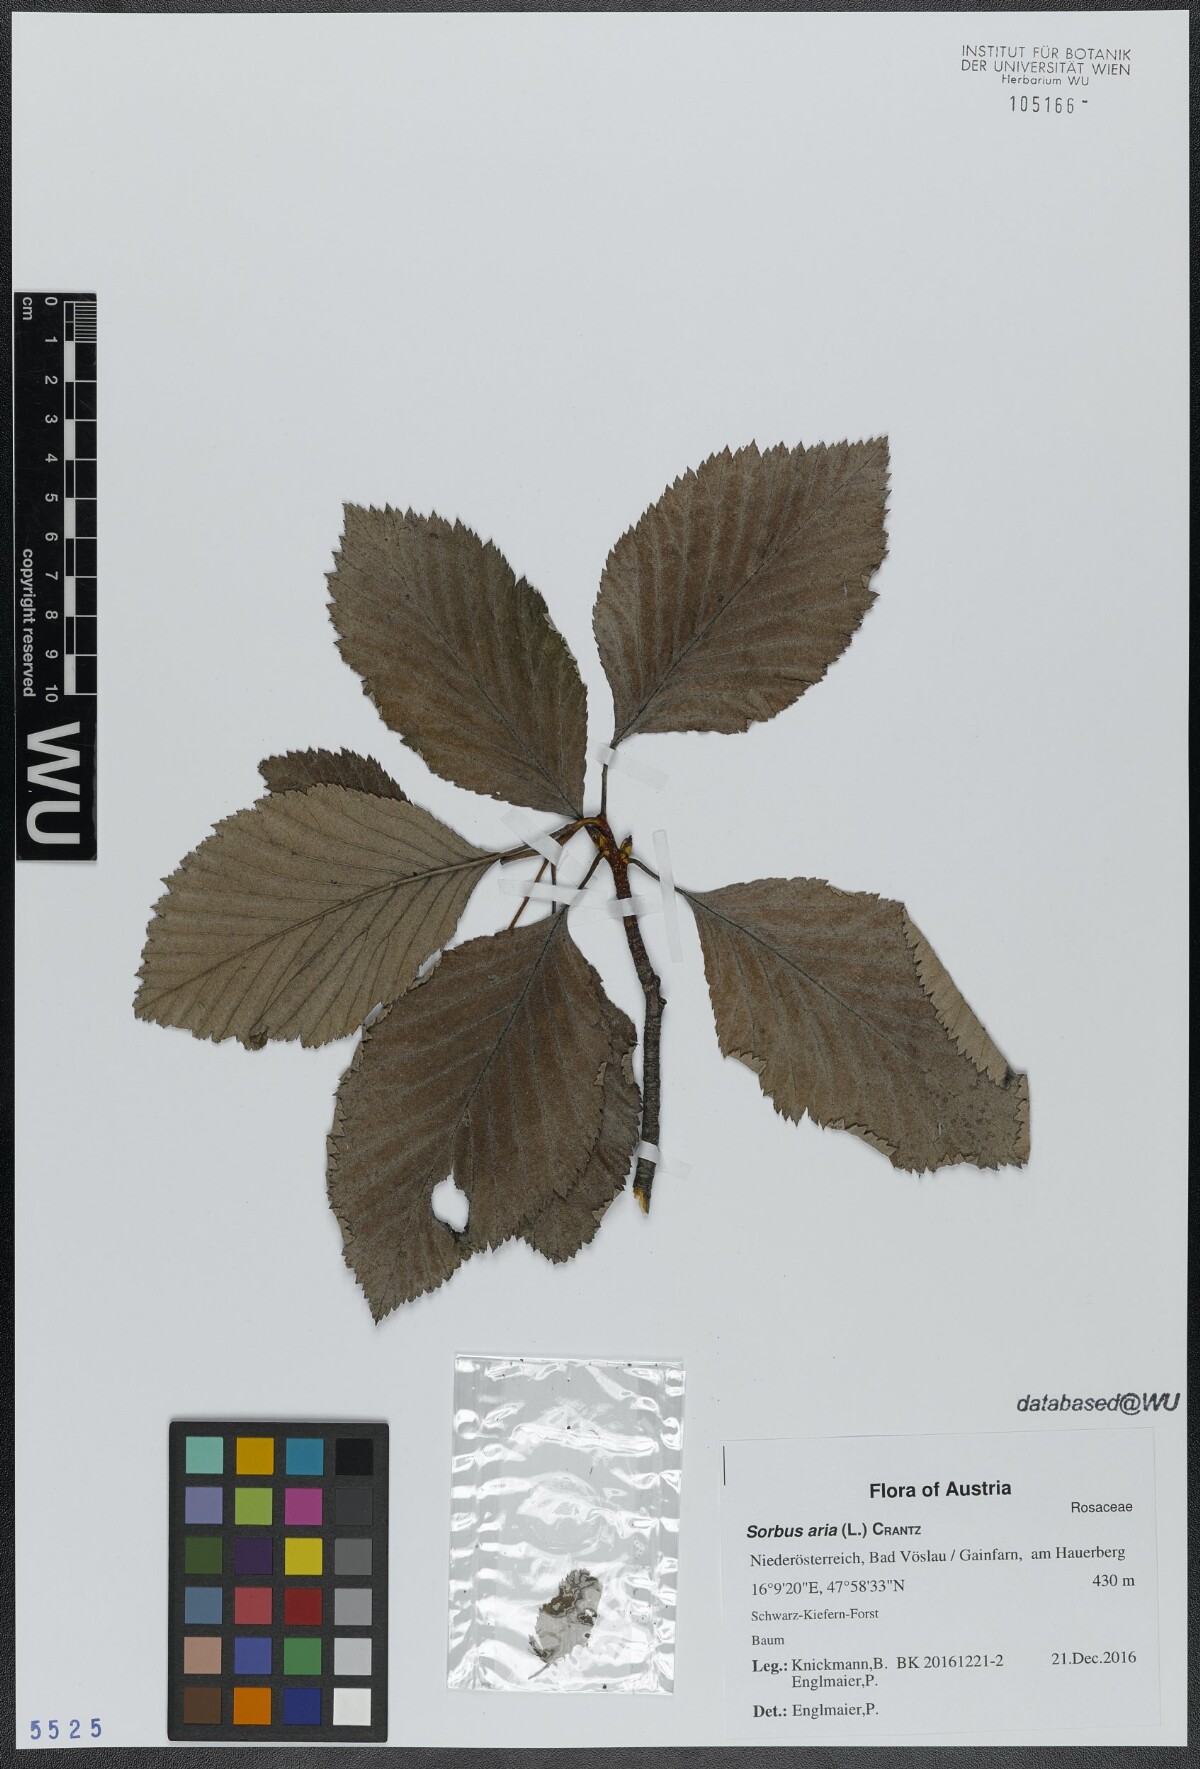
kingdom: Plantae
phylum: Tracheophyta
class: Magnoliopsida
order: Rosales
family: Rosaceae
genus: Aria
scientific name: Aria edulis
